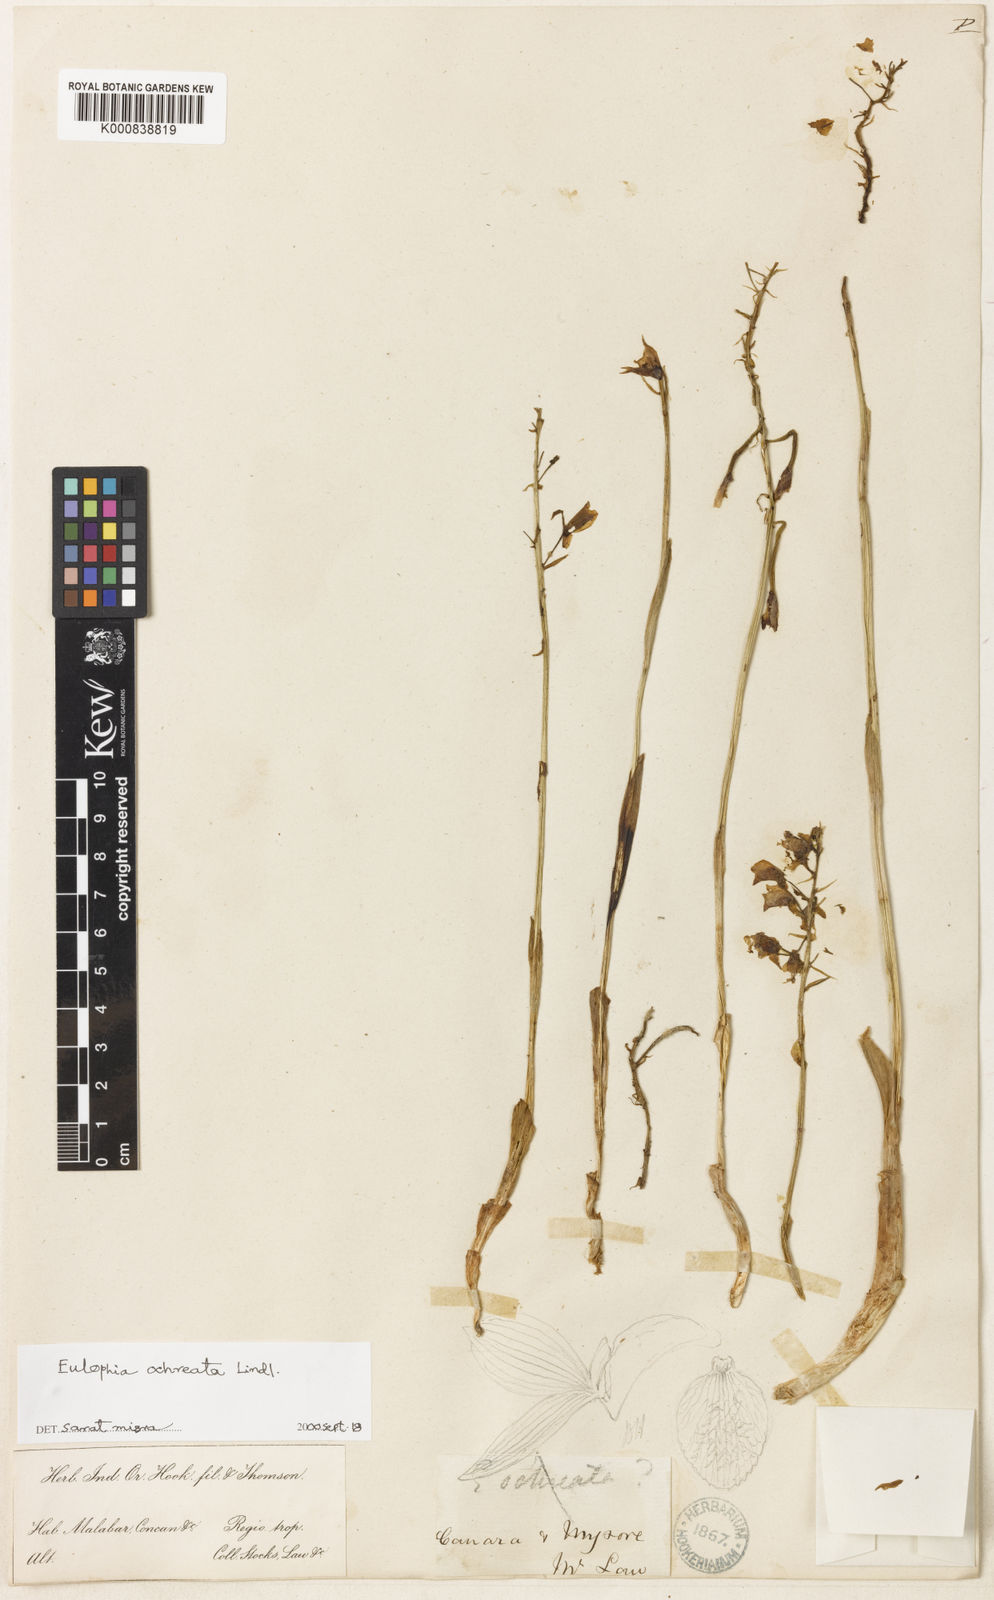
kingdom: Plantae
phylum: Tracheophyta
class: Liliopsida
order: Asparagales
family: Orchidaceae
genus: Eulophia
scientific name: Eulophia ochreata
